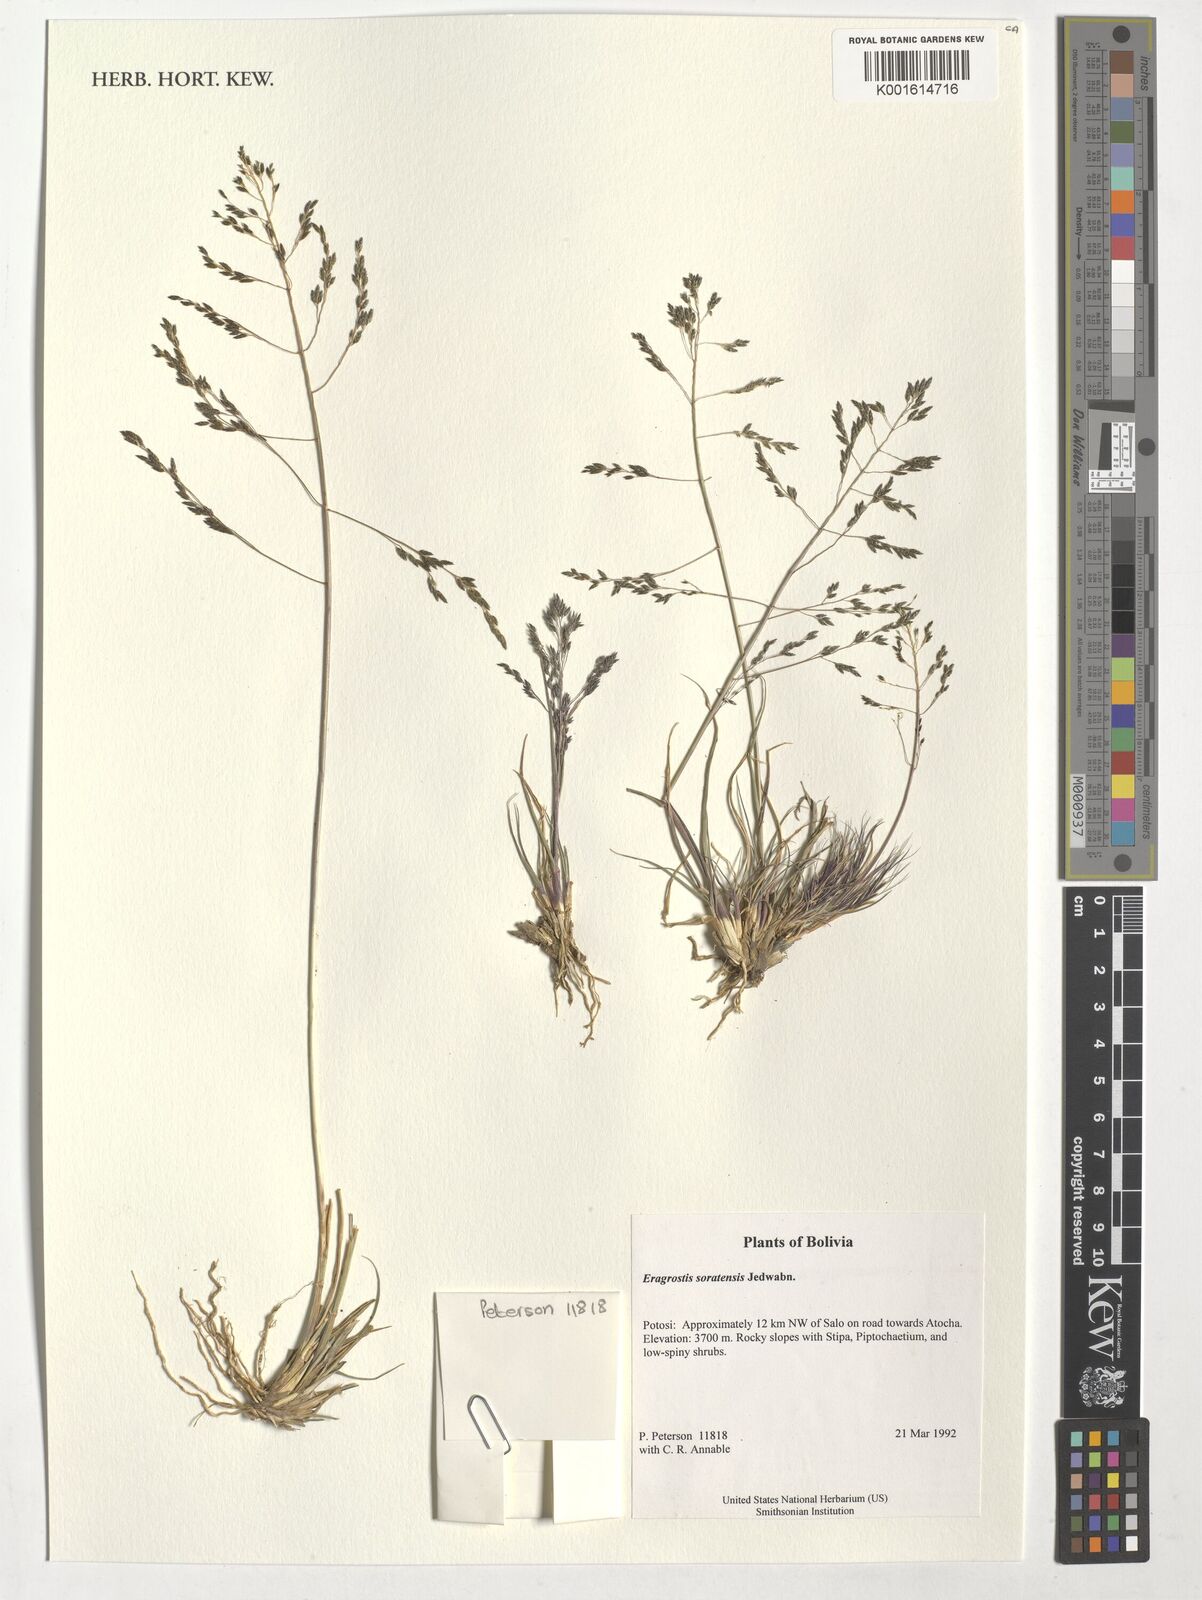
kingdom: Plantae
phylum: Tracheophyta
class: Liliopsida
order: Poales
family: Poaceae
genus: Eragrostis
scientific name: Eragrostis soratensis
